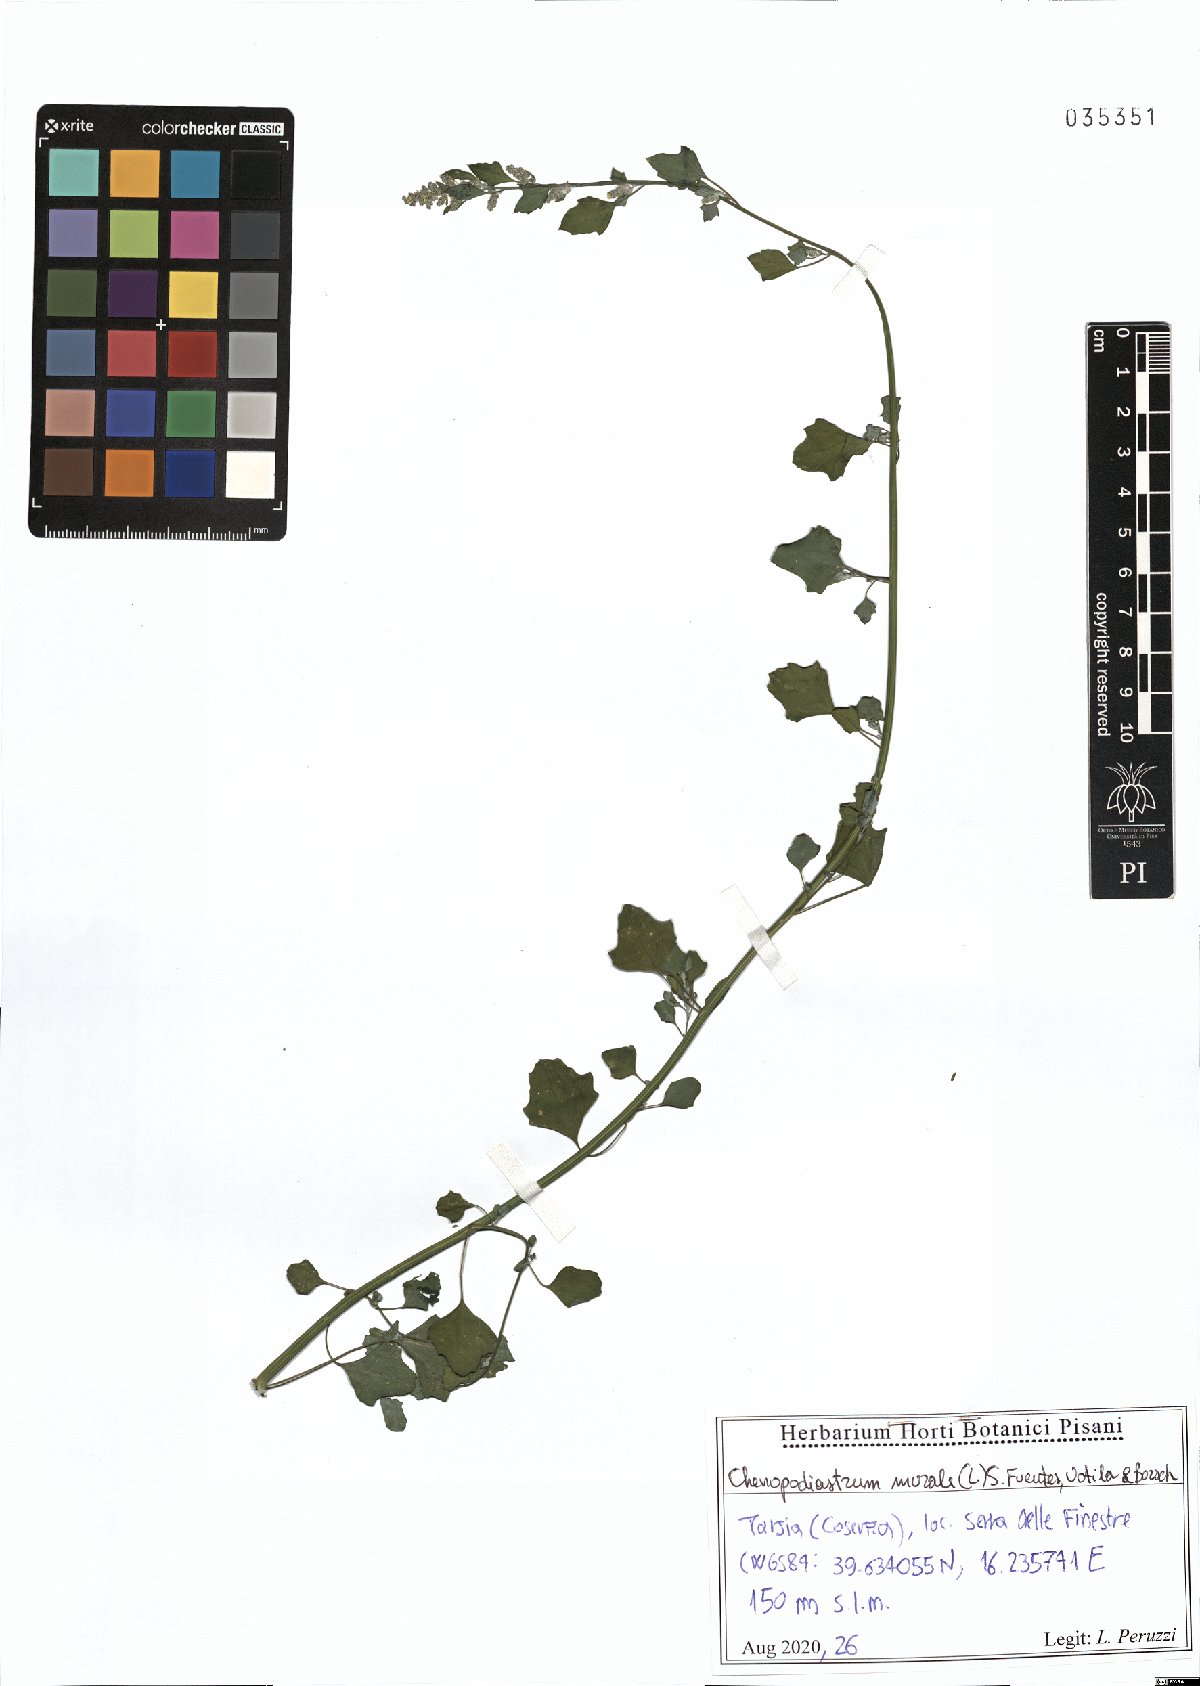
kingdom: Plantae
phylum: Tracheophyta
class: Magnoliopsida
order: Caryophyllales
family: Amaranthaceae
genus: Chenopodiastrum
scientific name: Chenopodiastrum murale
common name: Sowbane
